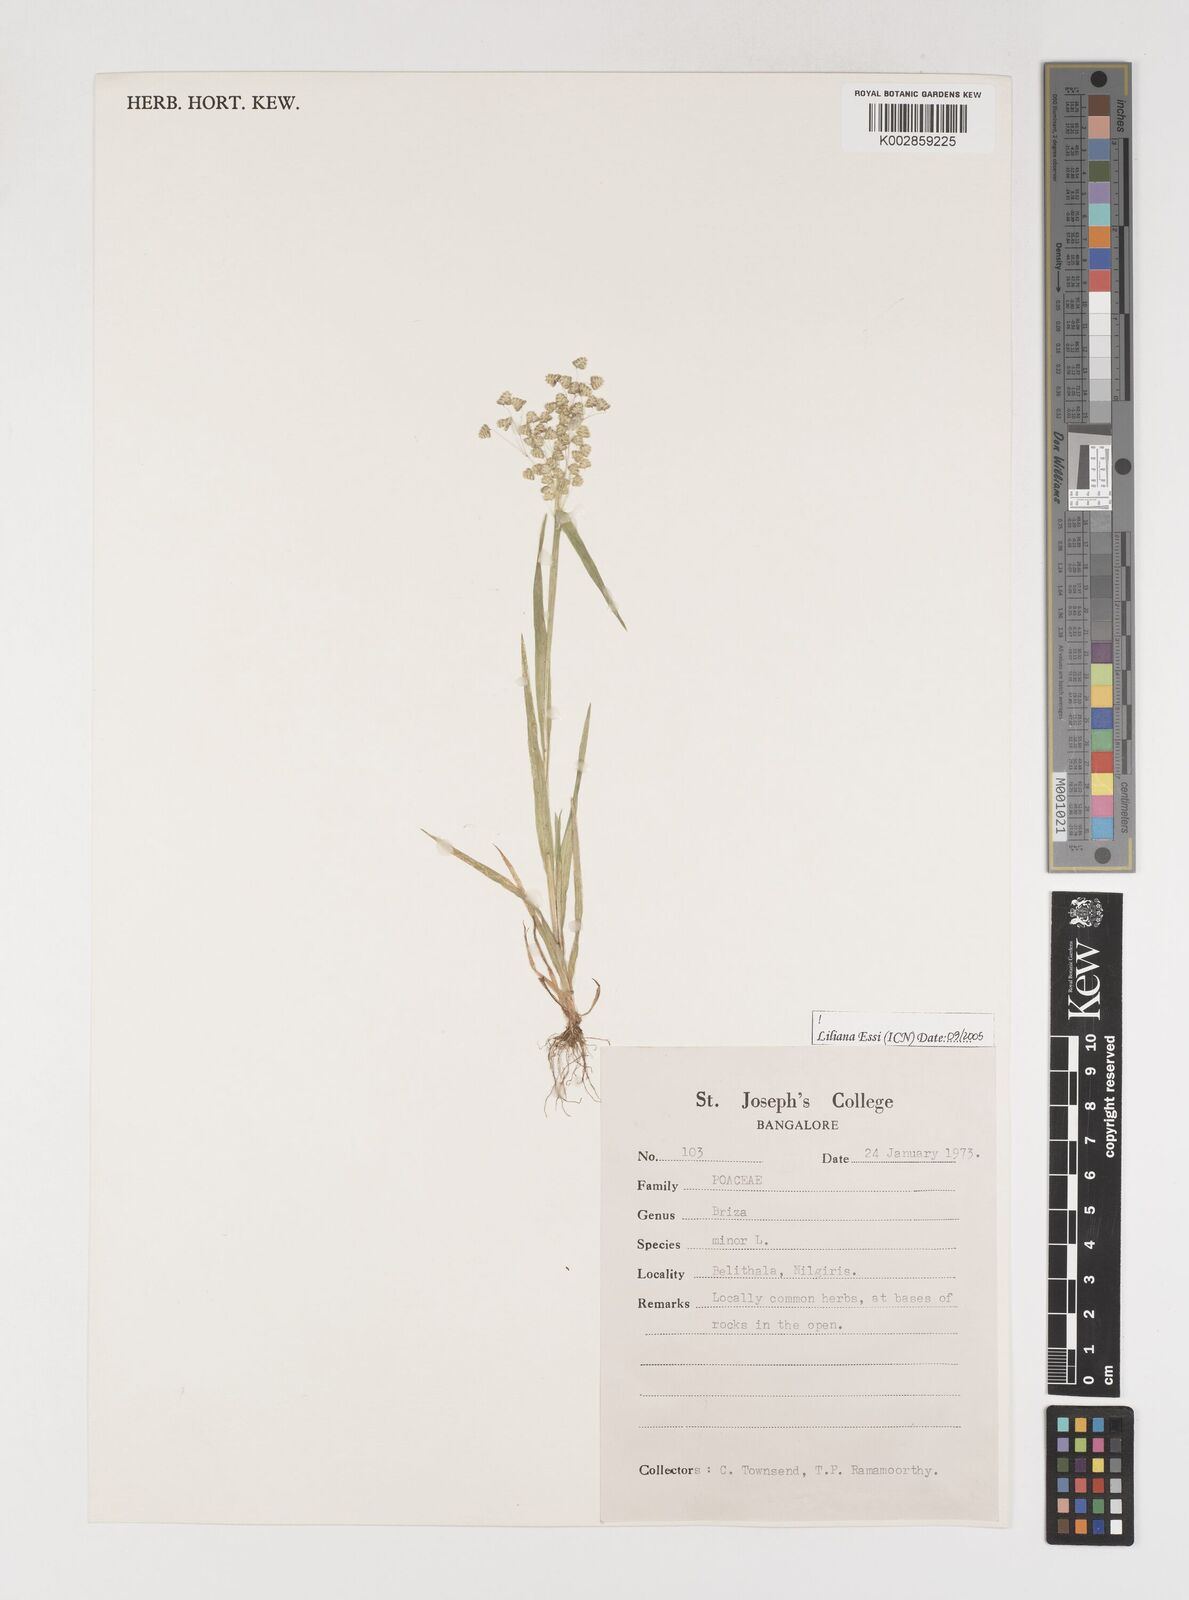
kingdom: Plantae
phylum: Tracheophyta
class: Liliopsida
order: Poales
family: Poaceae
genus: Briza
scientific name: Briza minor
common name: Lesser quaking-grass
